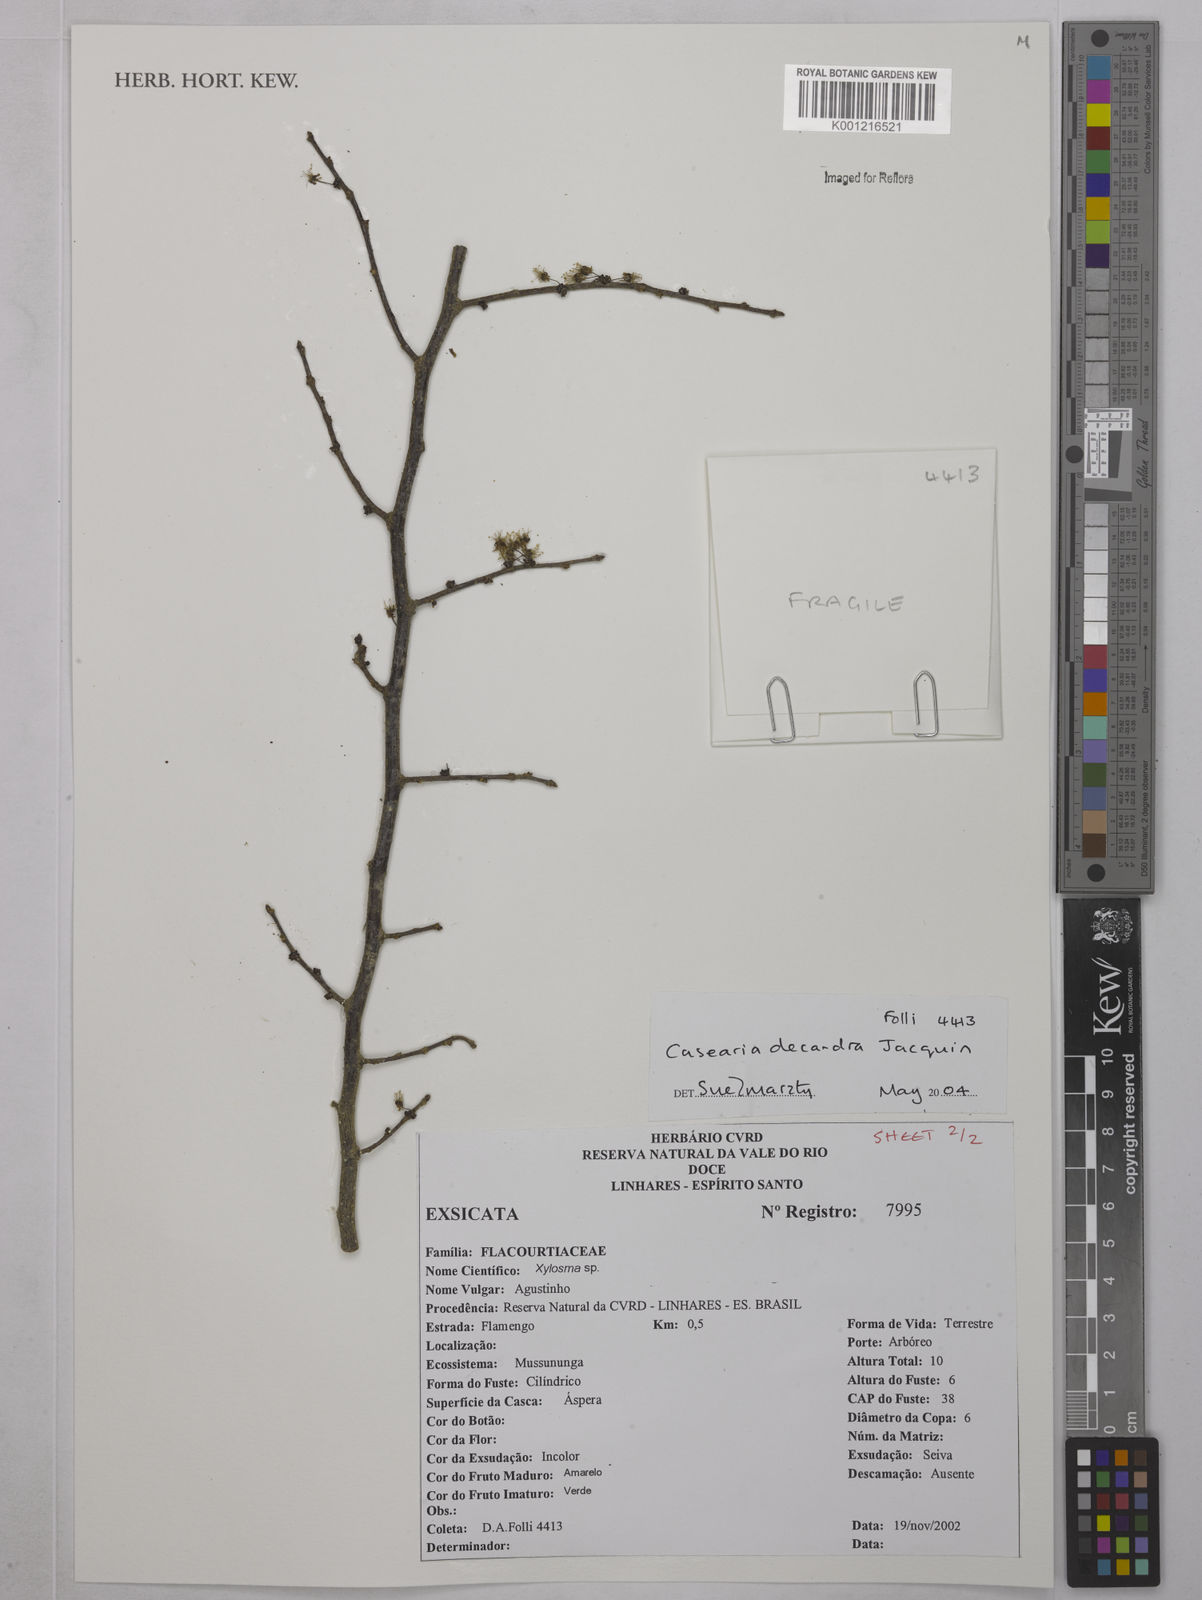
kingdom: Plantae
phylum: Tracheophyta
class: Magnoliopsida
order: Malpighiales
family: Salicaceae
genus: Casearia
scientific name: Casearia decandra
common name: Crack open
